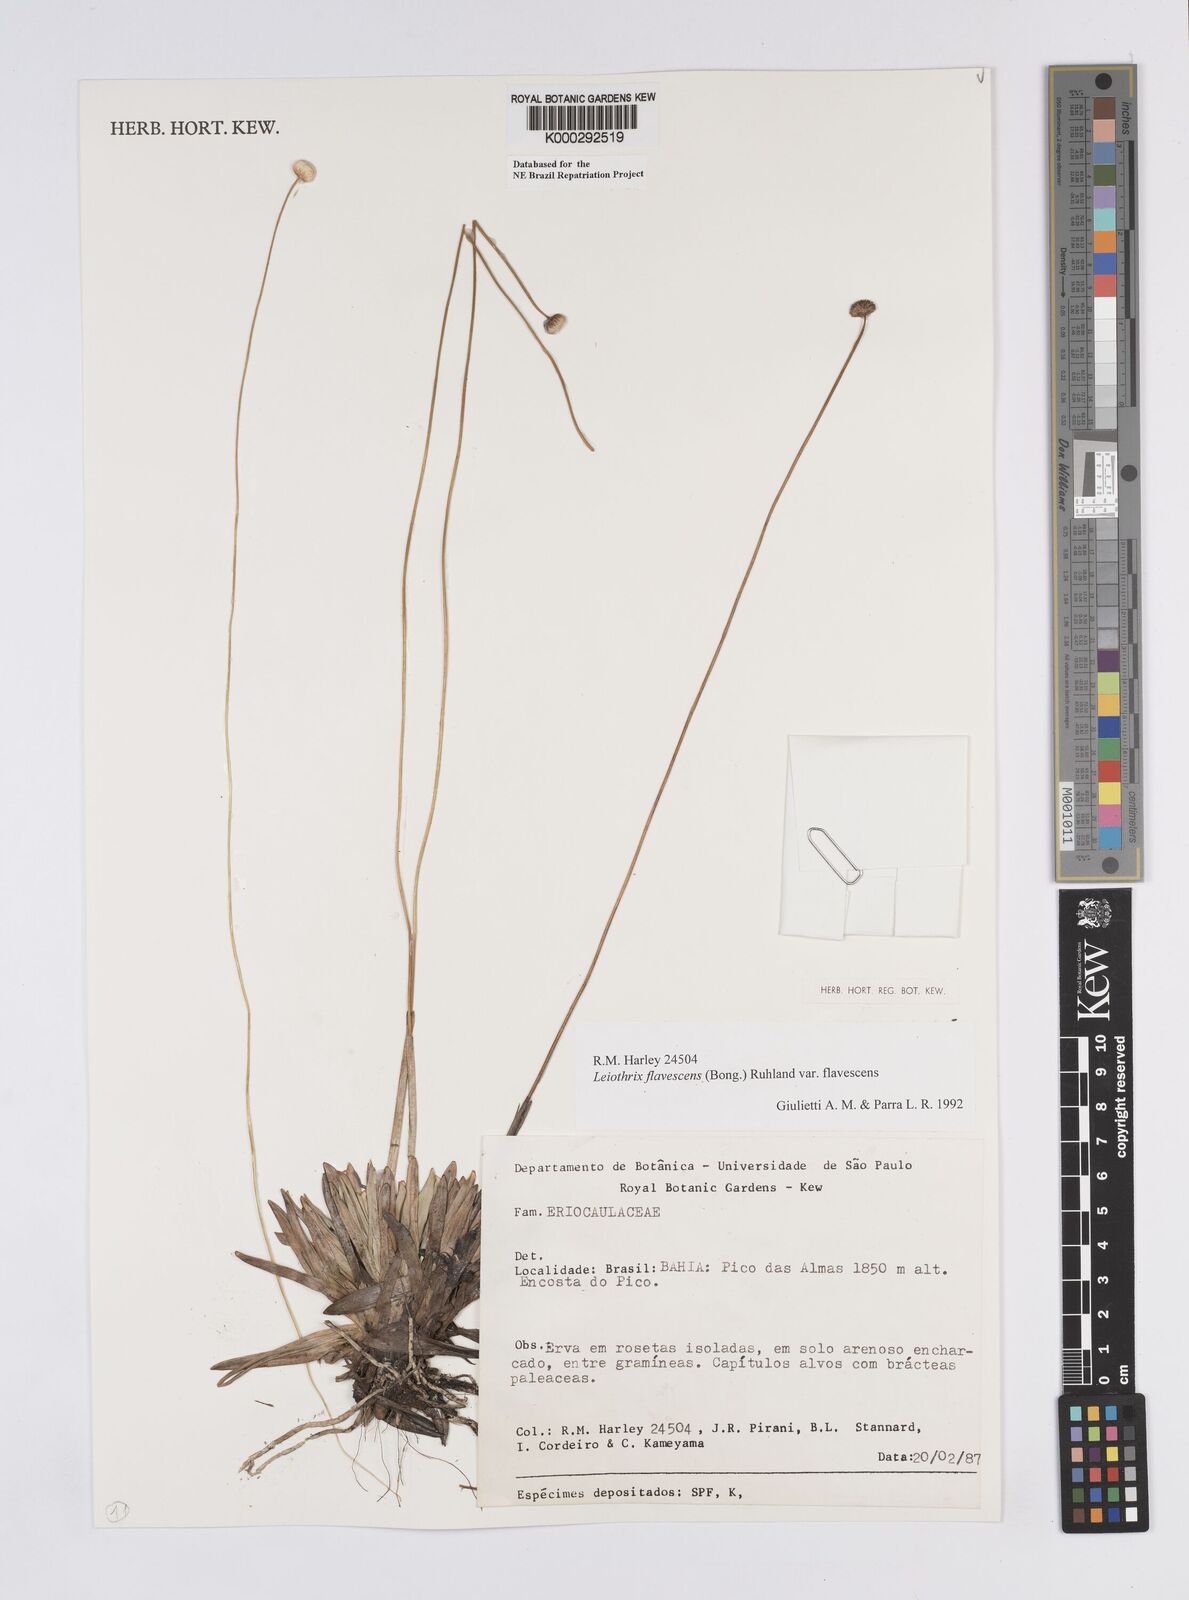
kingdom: Plantae
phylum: Tracheophyta
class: Liliopsida
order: Poales
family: Eriocaulaceae
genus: Leiothrix
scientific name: Leiothrix flavescens
